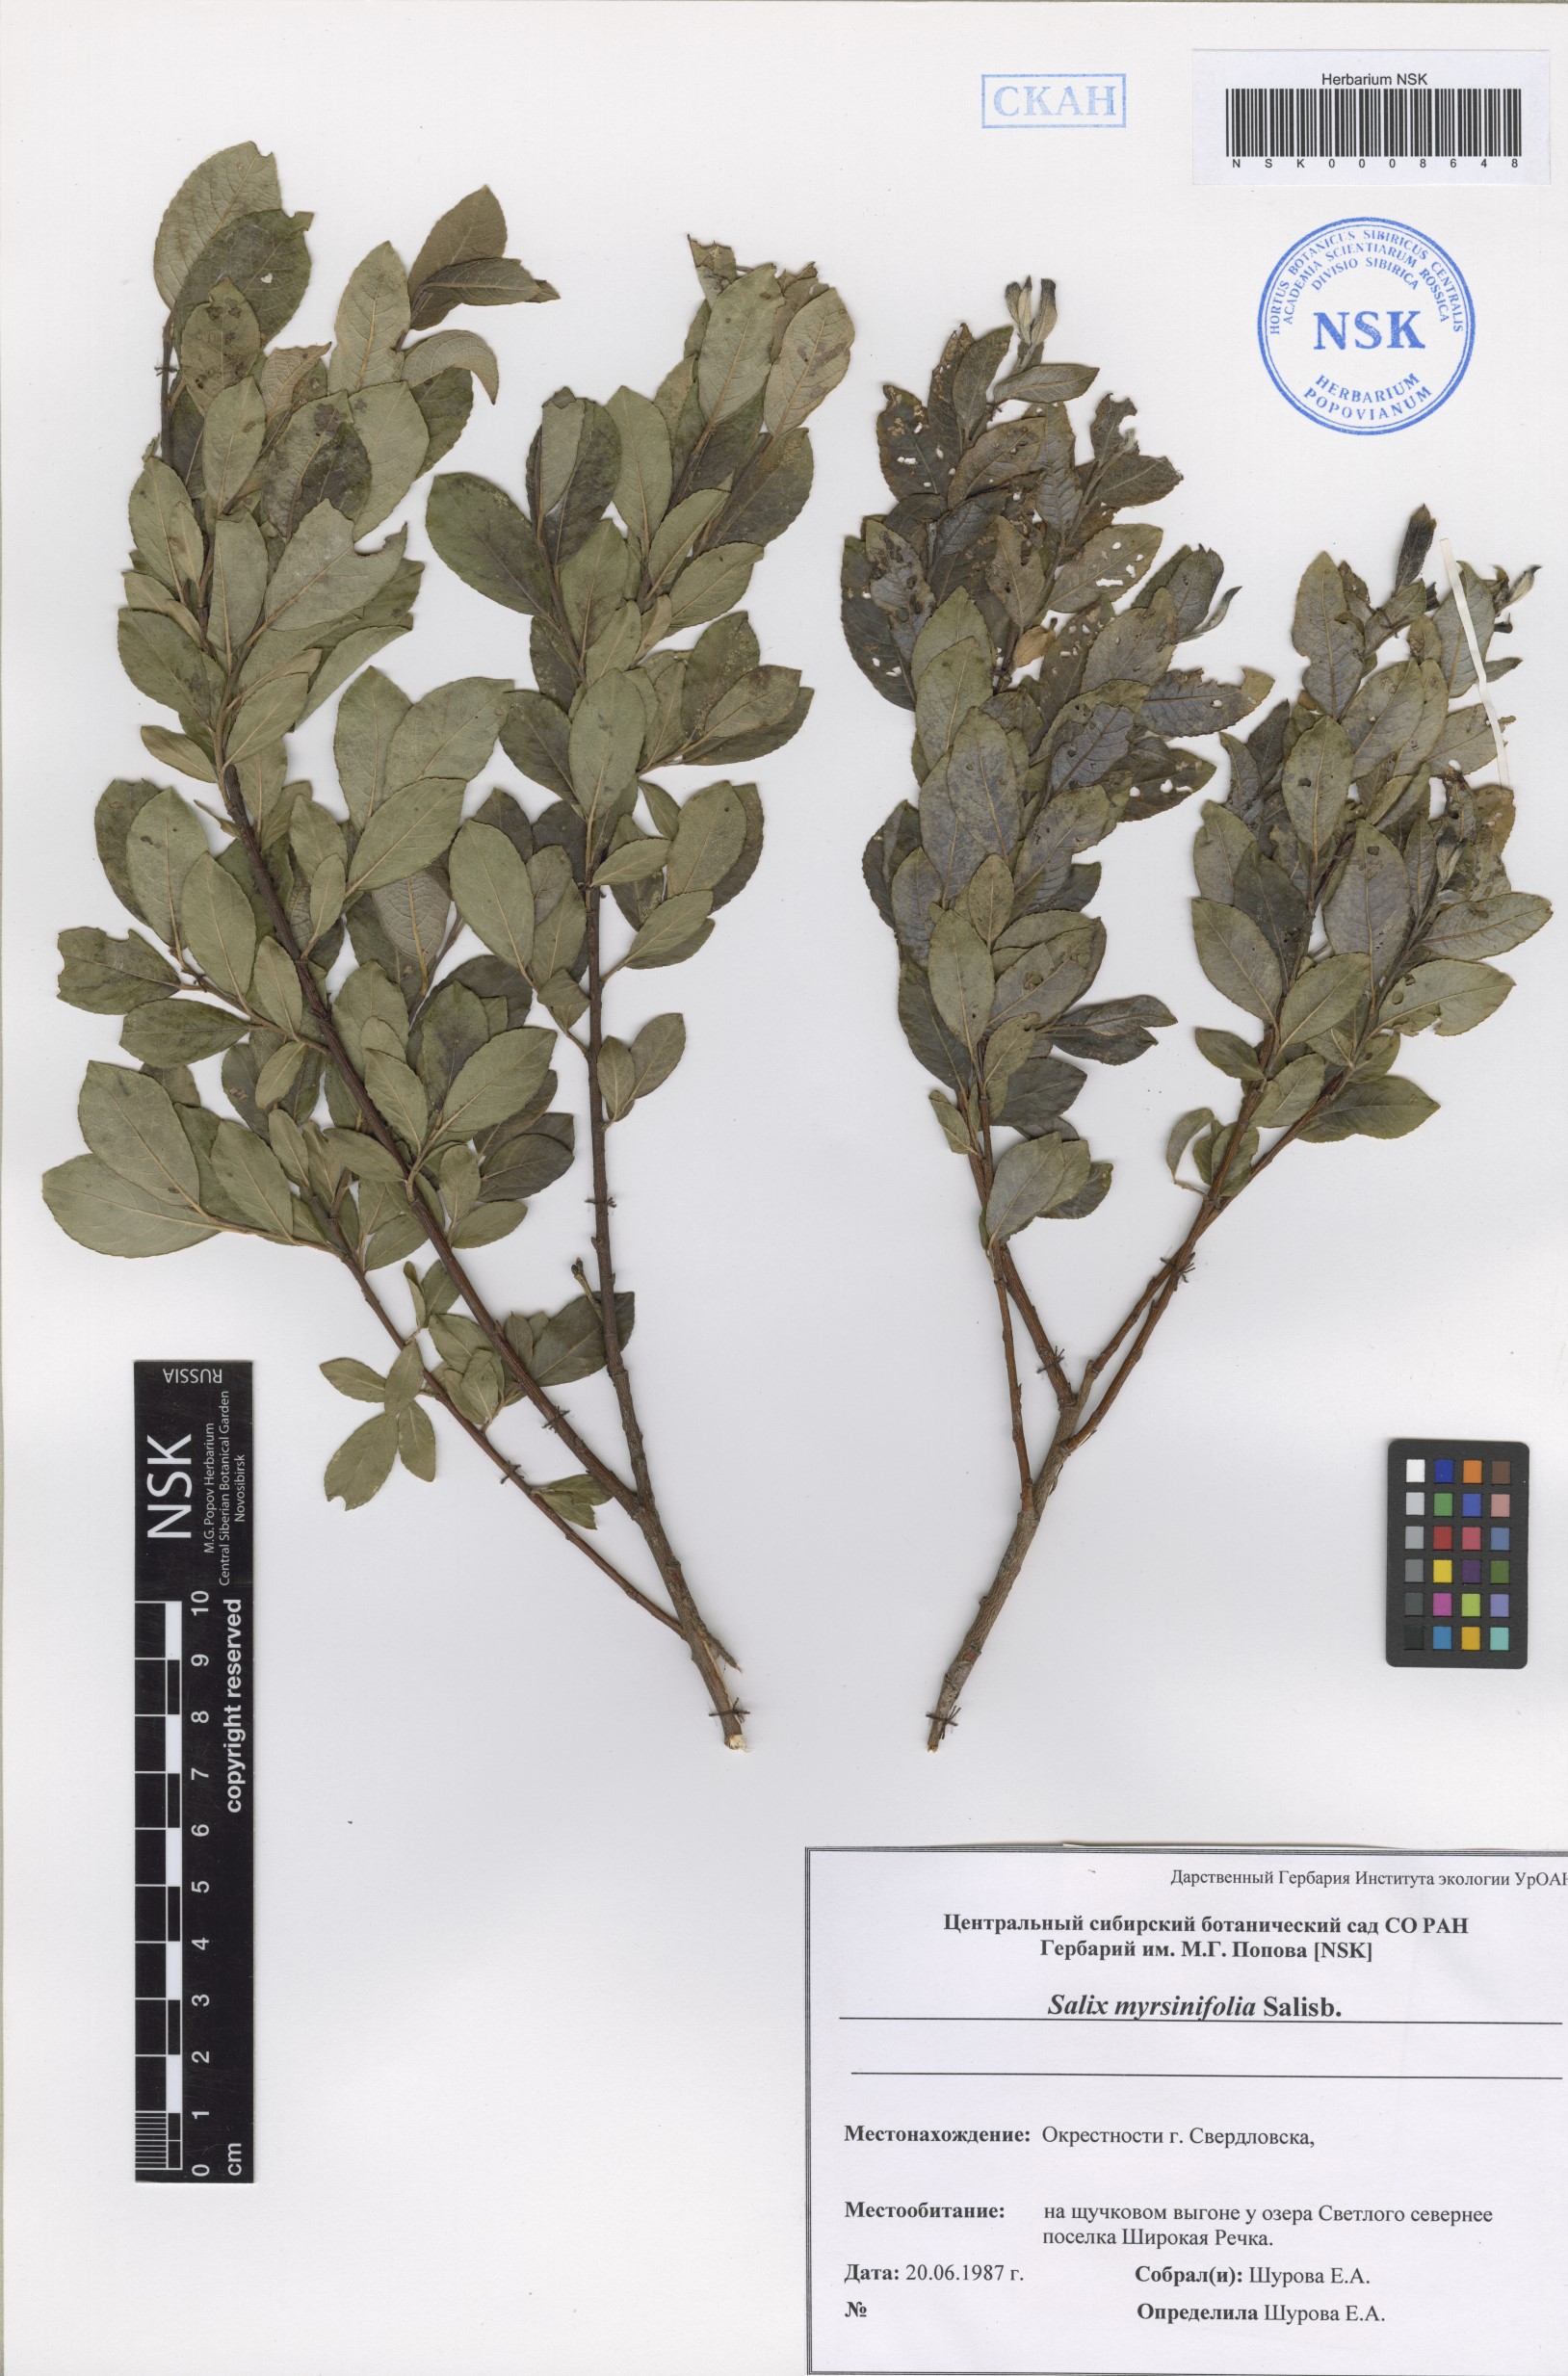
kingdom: Plantae
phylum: Tracheophyta
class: Magnoliopsida
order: Malpighiales
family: Salicaceae
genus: Salix
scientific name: Salix myrsinifolia
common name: Dark-leaved willow
